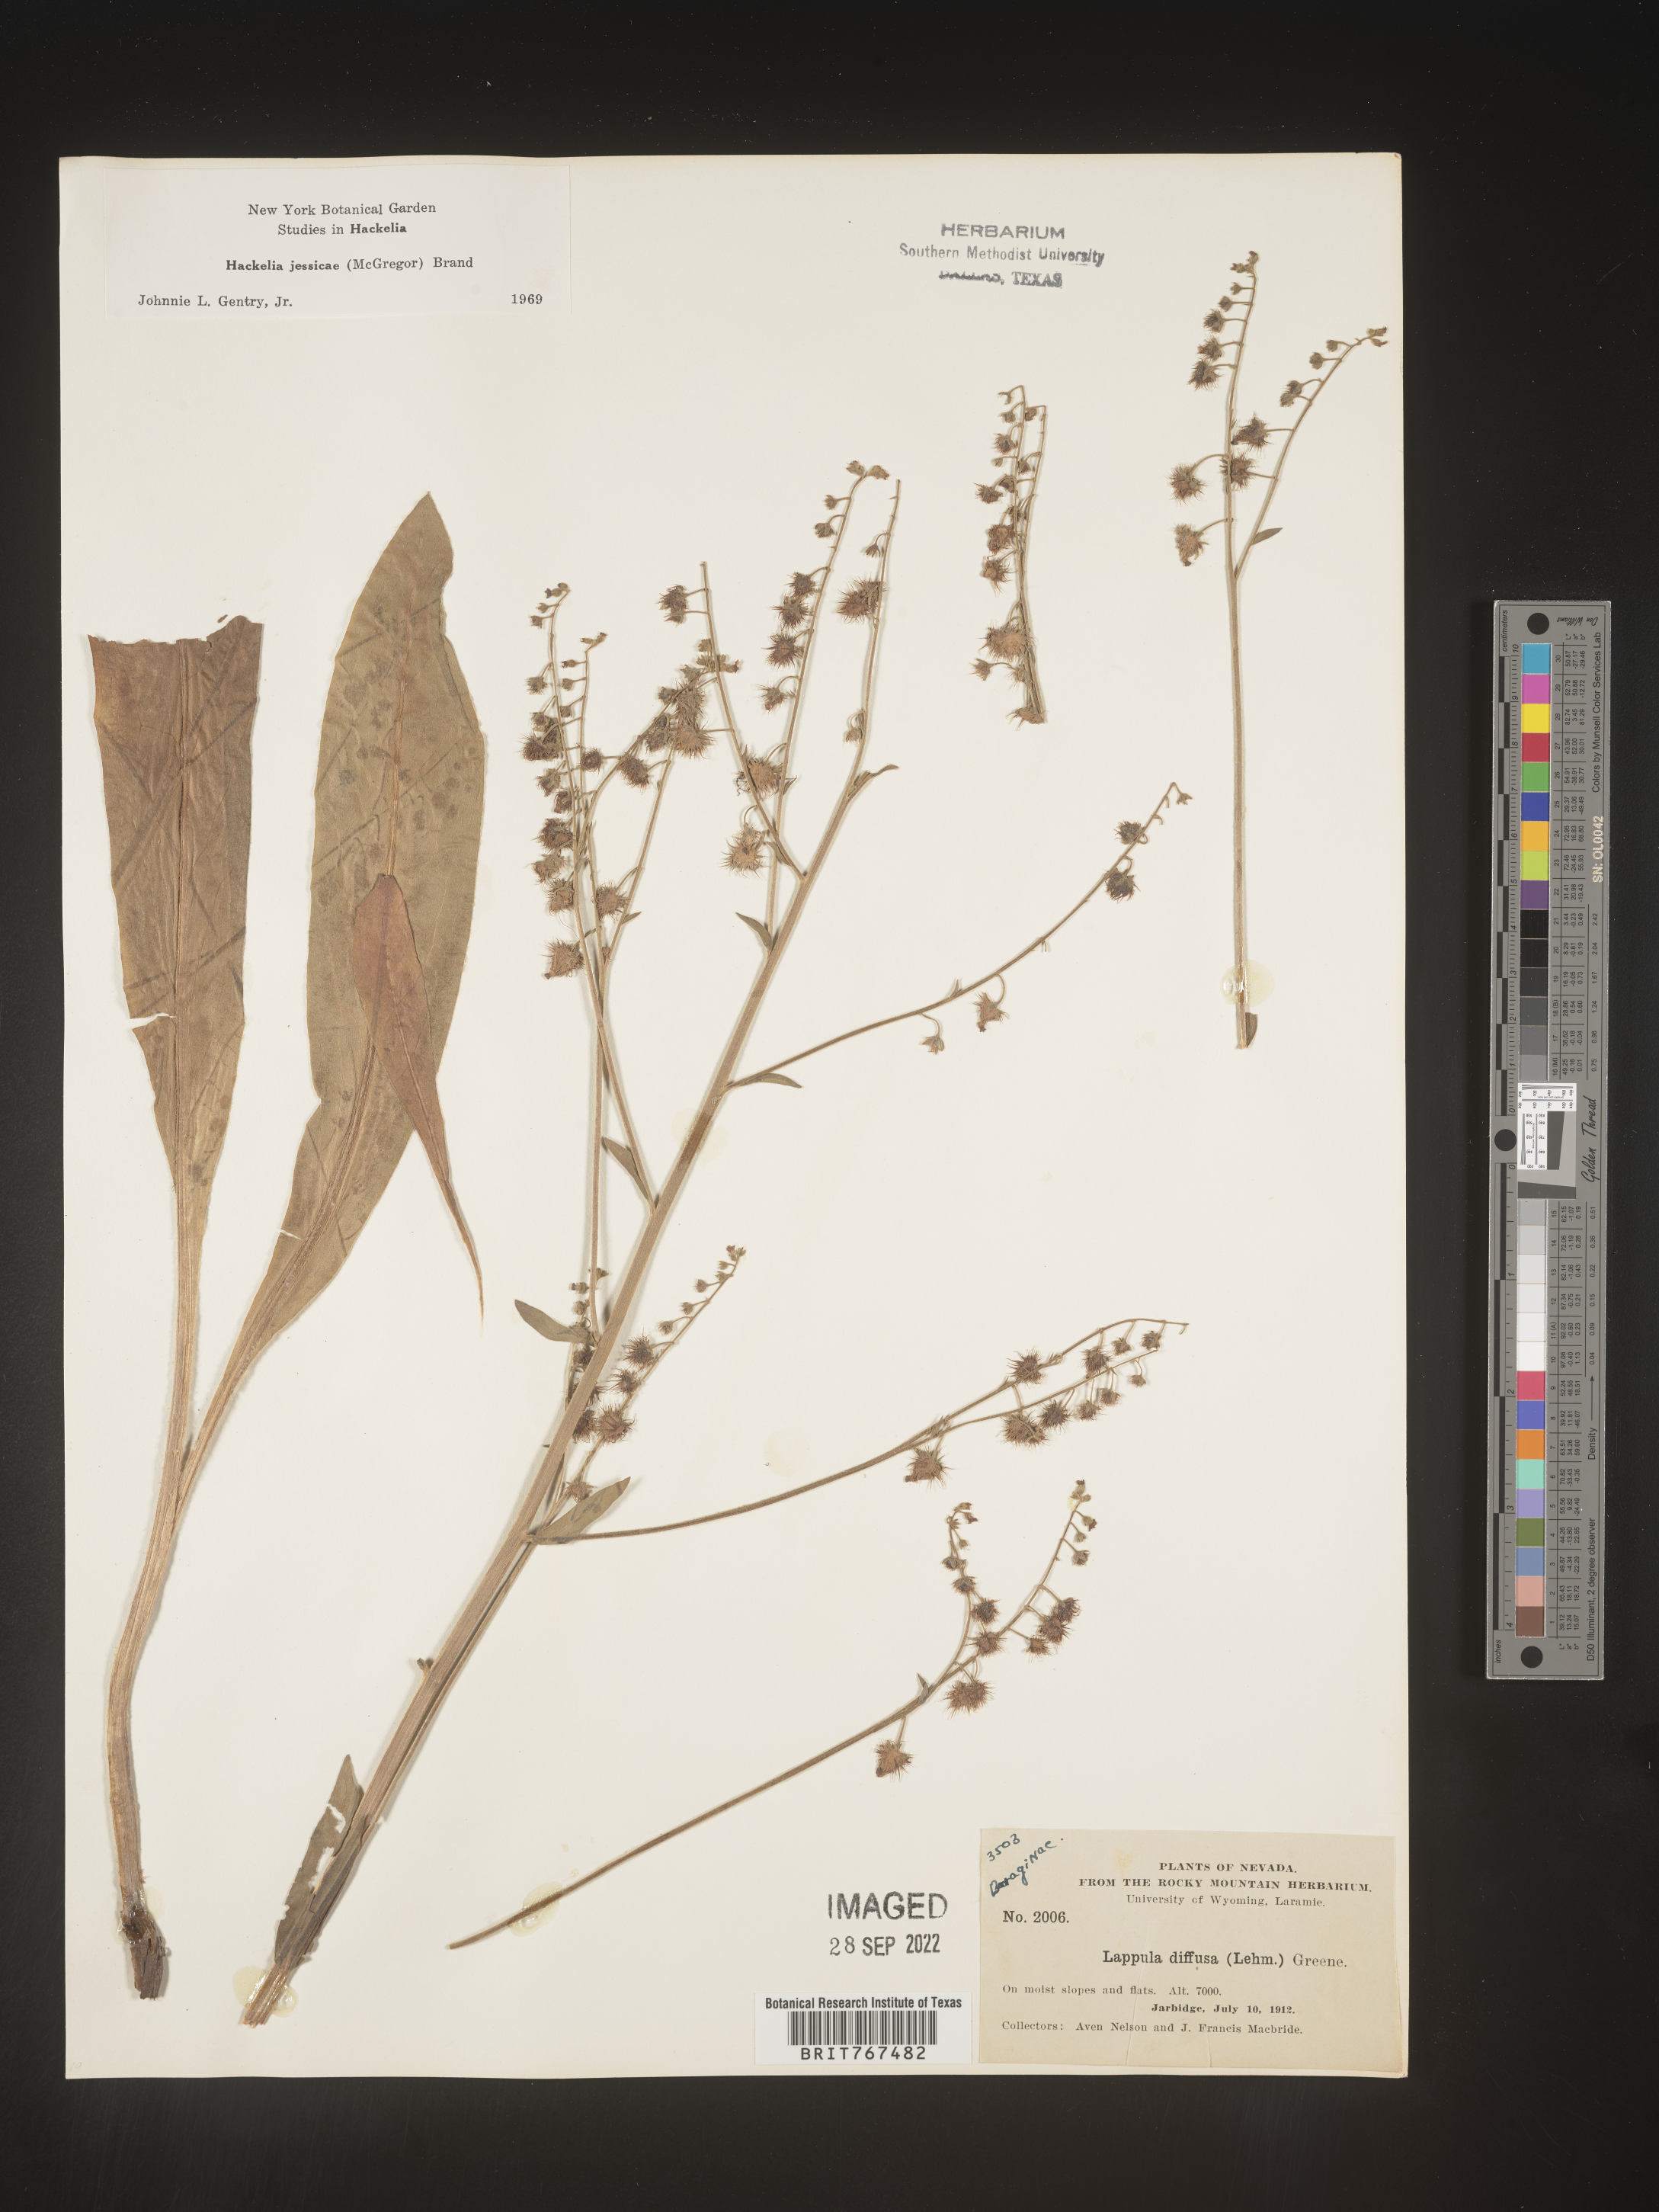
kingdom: Plantae
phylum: Tracheophyta
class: Magnoliopsida
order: Boraginales
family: Boraginaceae
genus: Hackelia
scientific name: Hackelia micrantha
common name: Meadow stickseed
